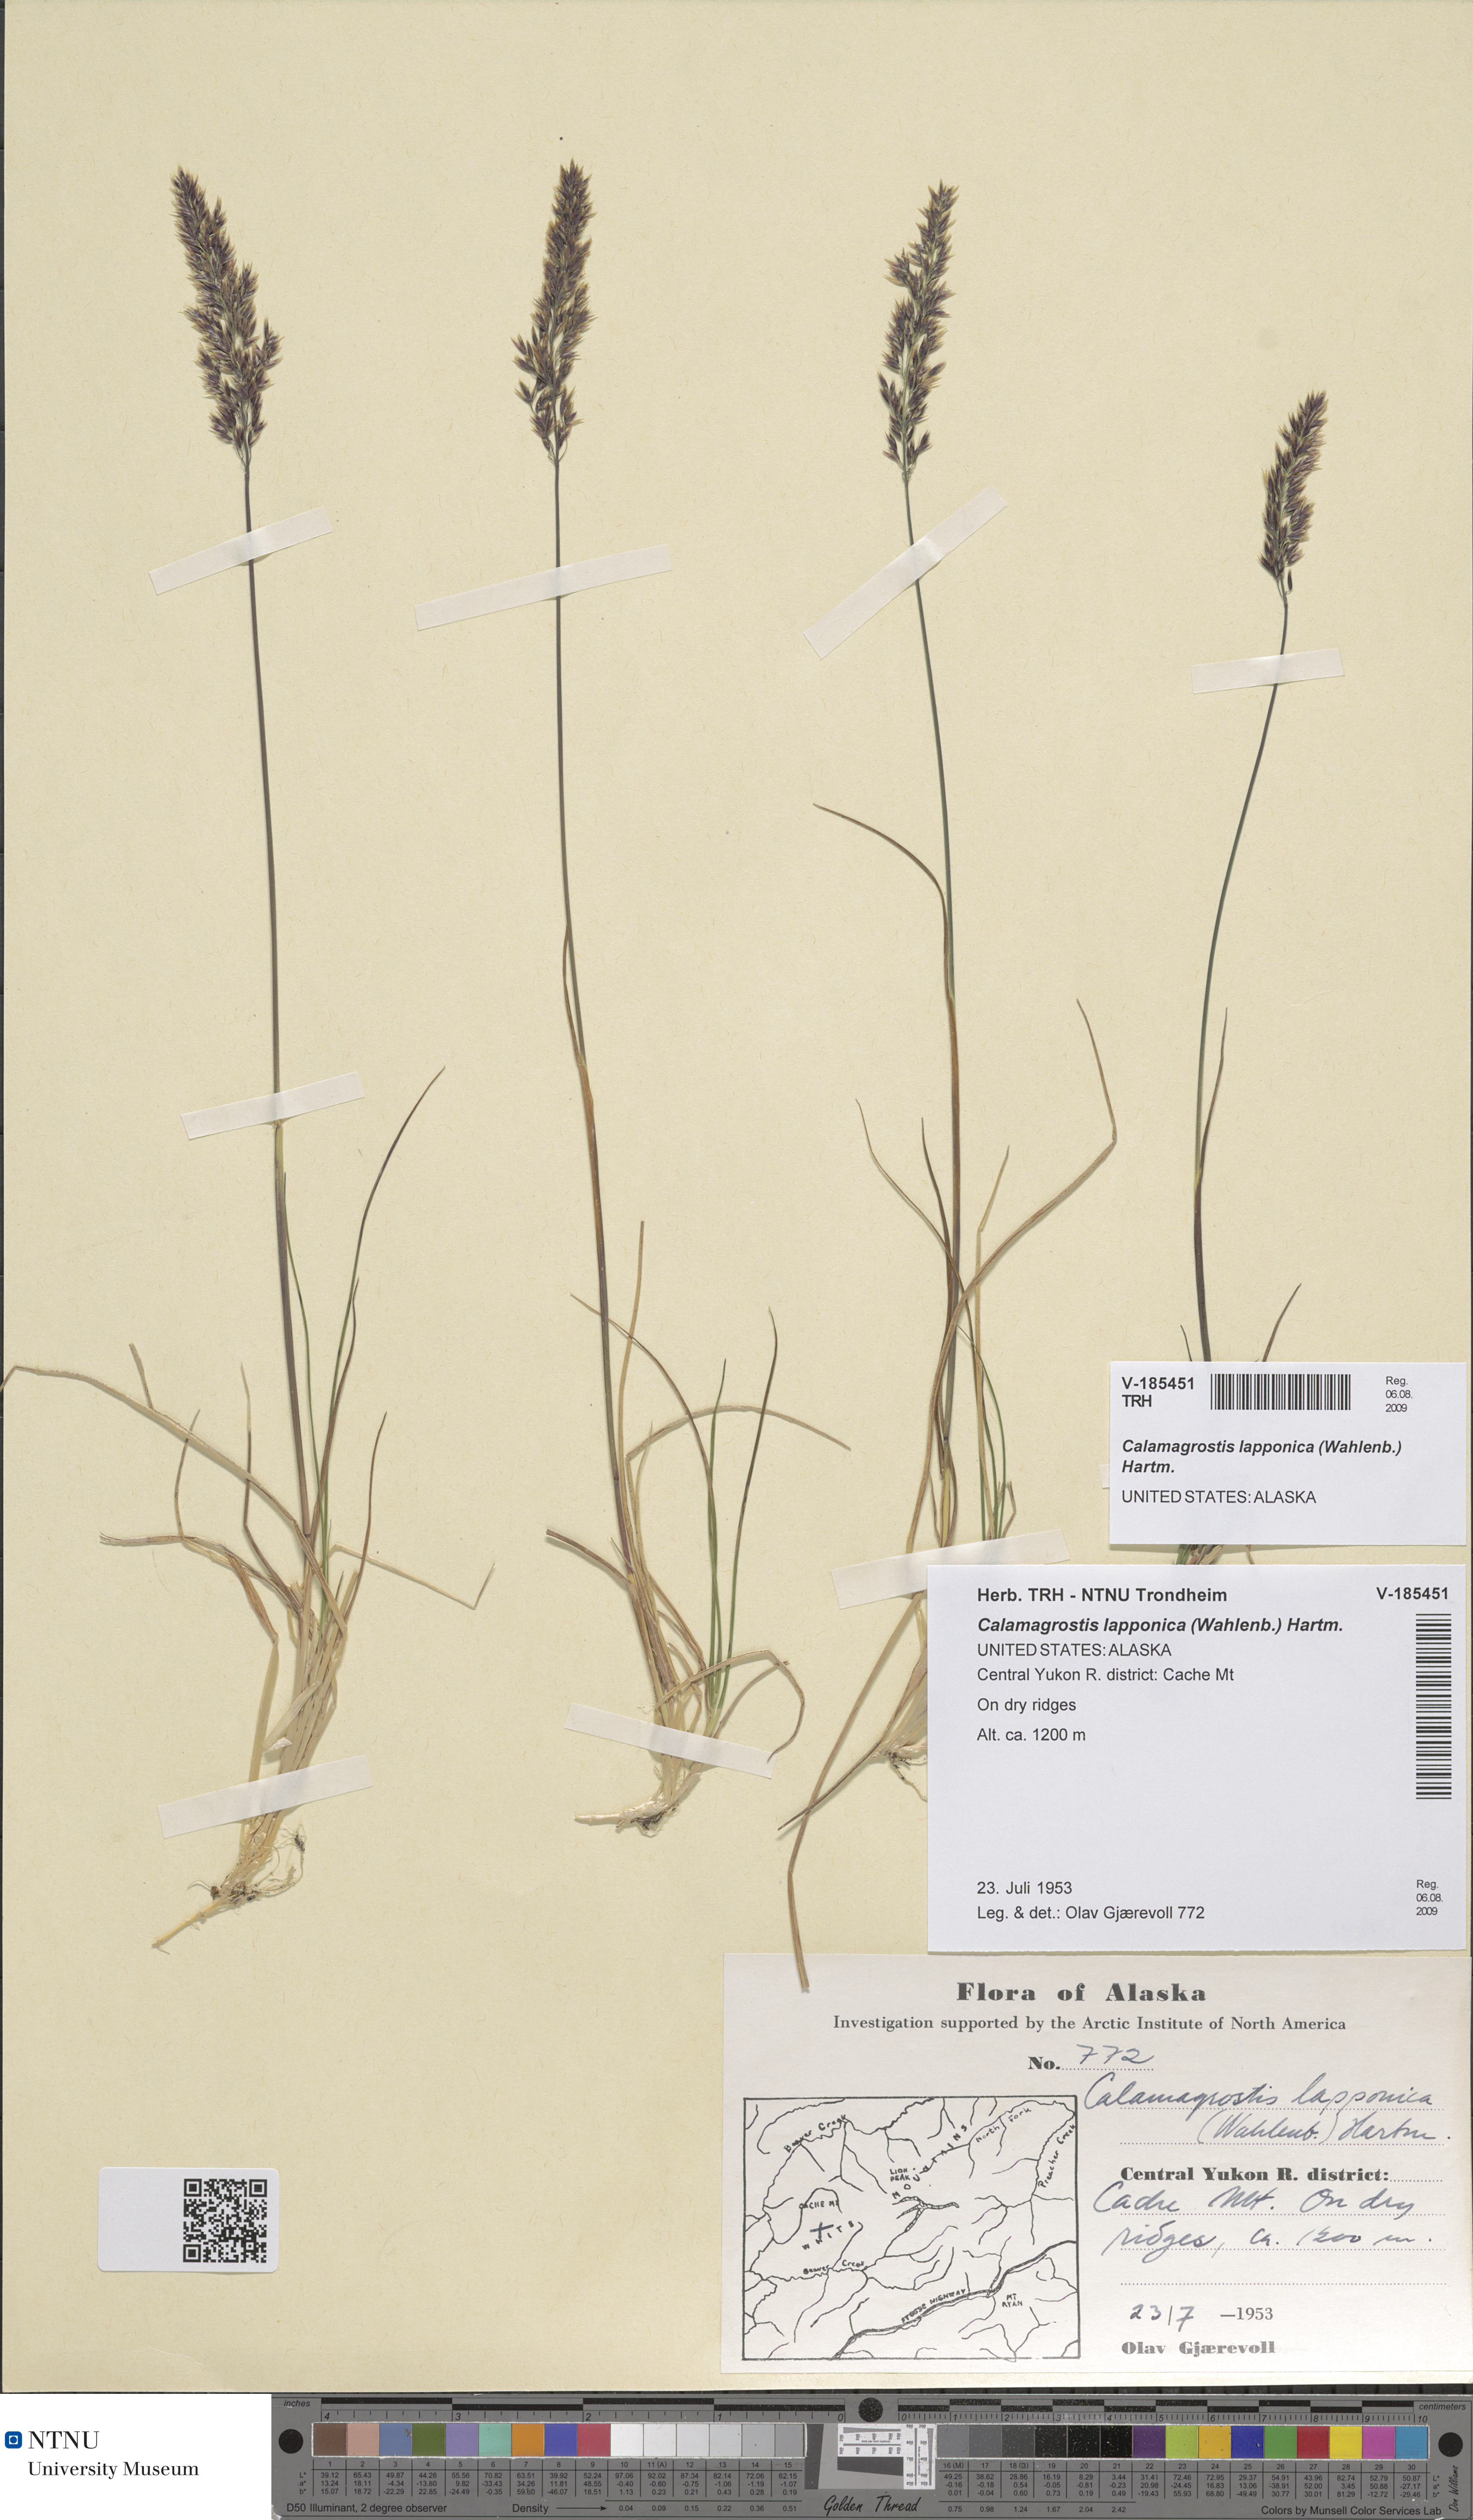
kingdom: Plantae
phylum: Tracheophyta
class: Liliopsida
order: Poales
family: Poaceae
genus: Calamagrostis
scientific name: Calamagrostis lapponica
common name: Lapland reedgrass
